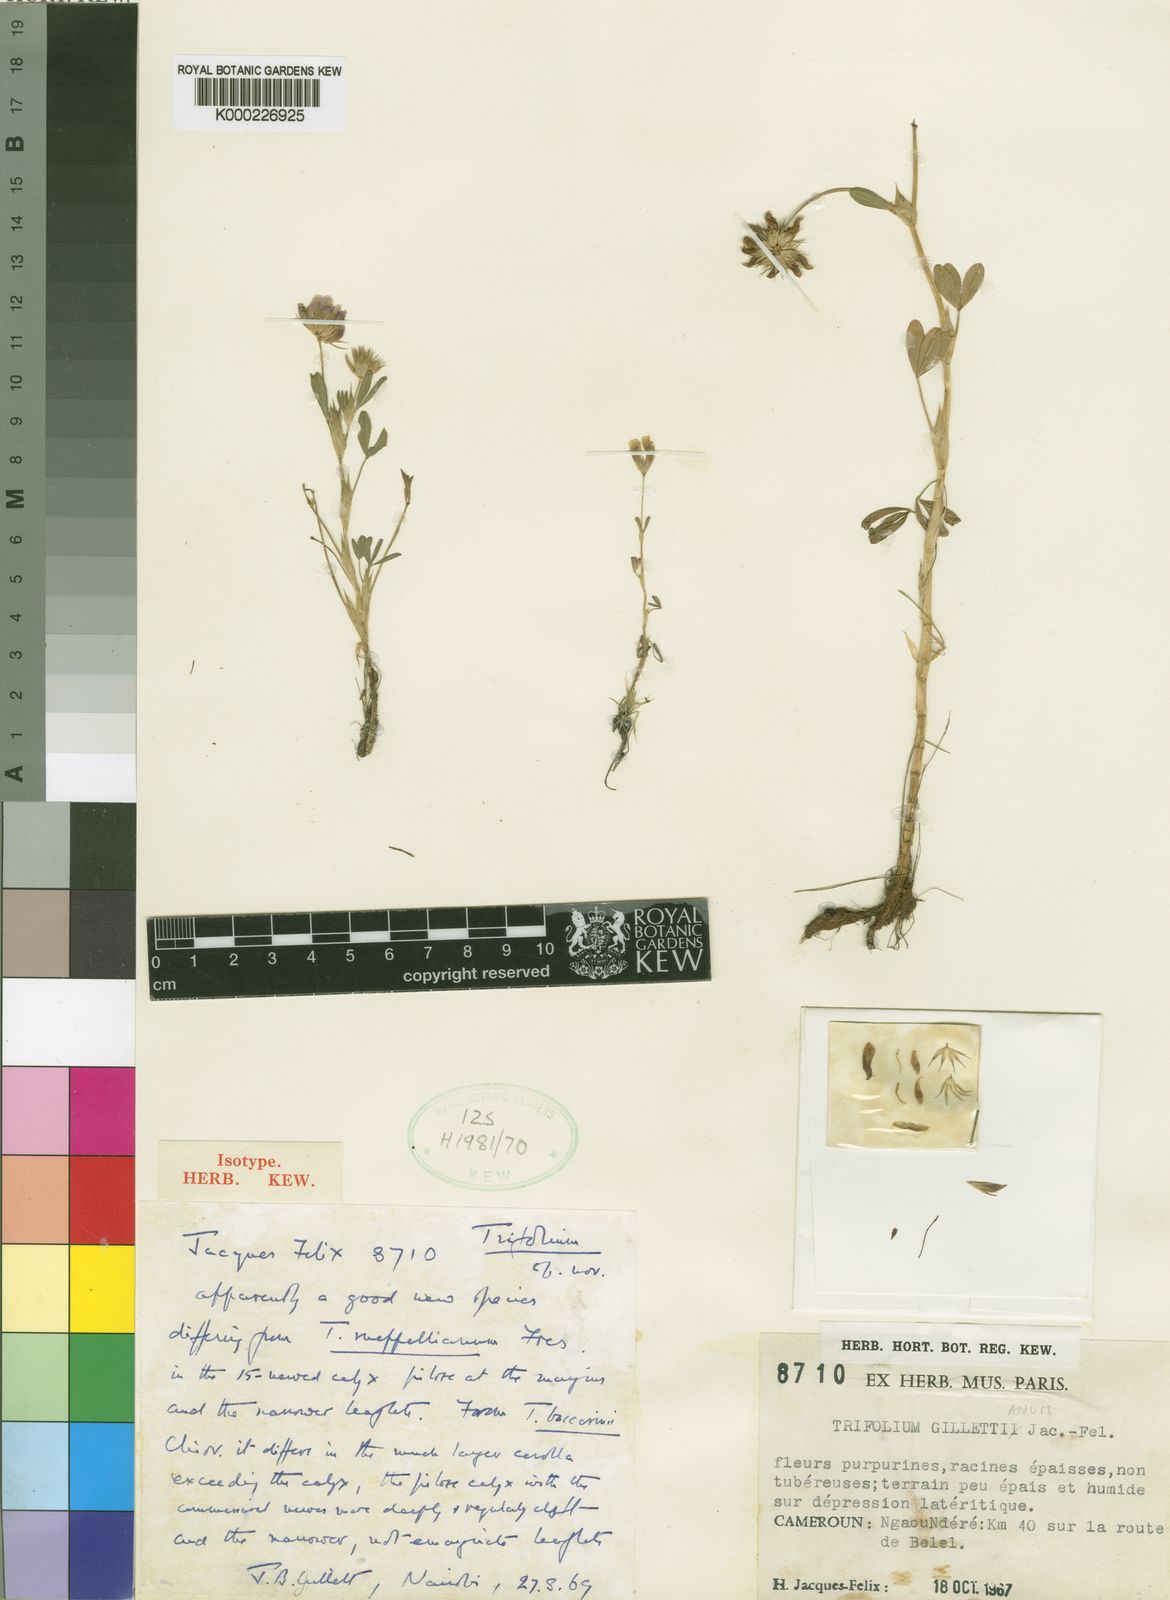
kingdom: Plantae
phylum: Tracheophyta
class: Magnoliopsida
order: Fabales
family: Fabaceae
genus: Trifolium
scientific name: Trifolium
